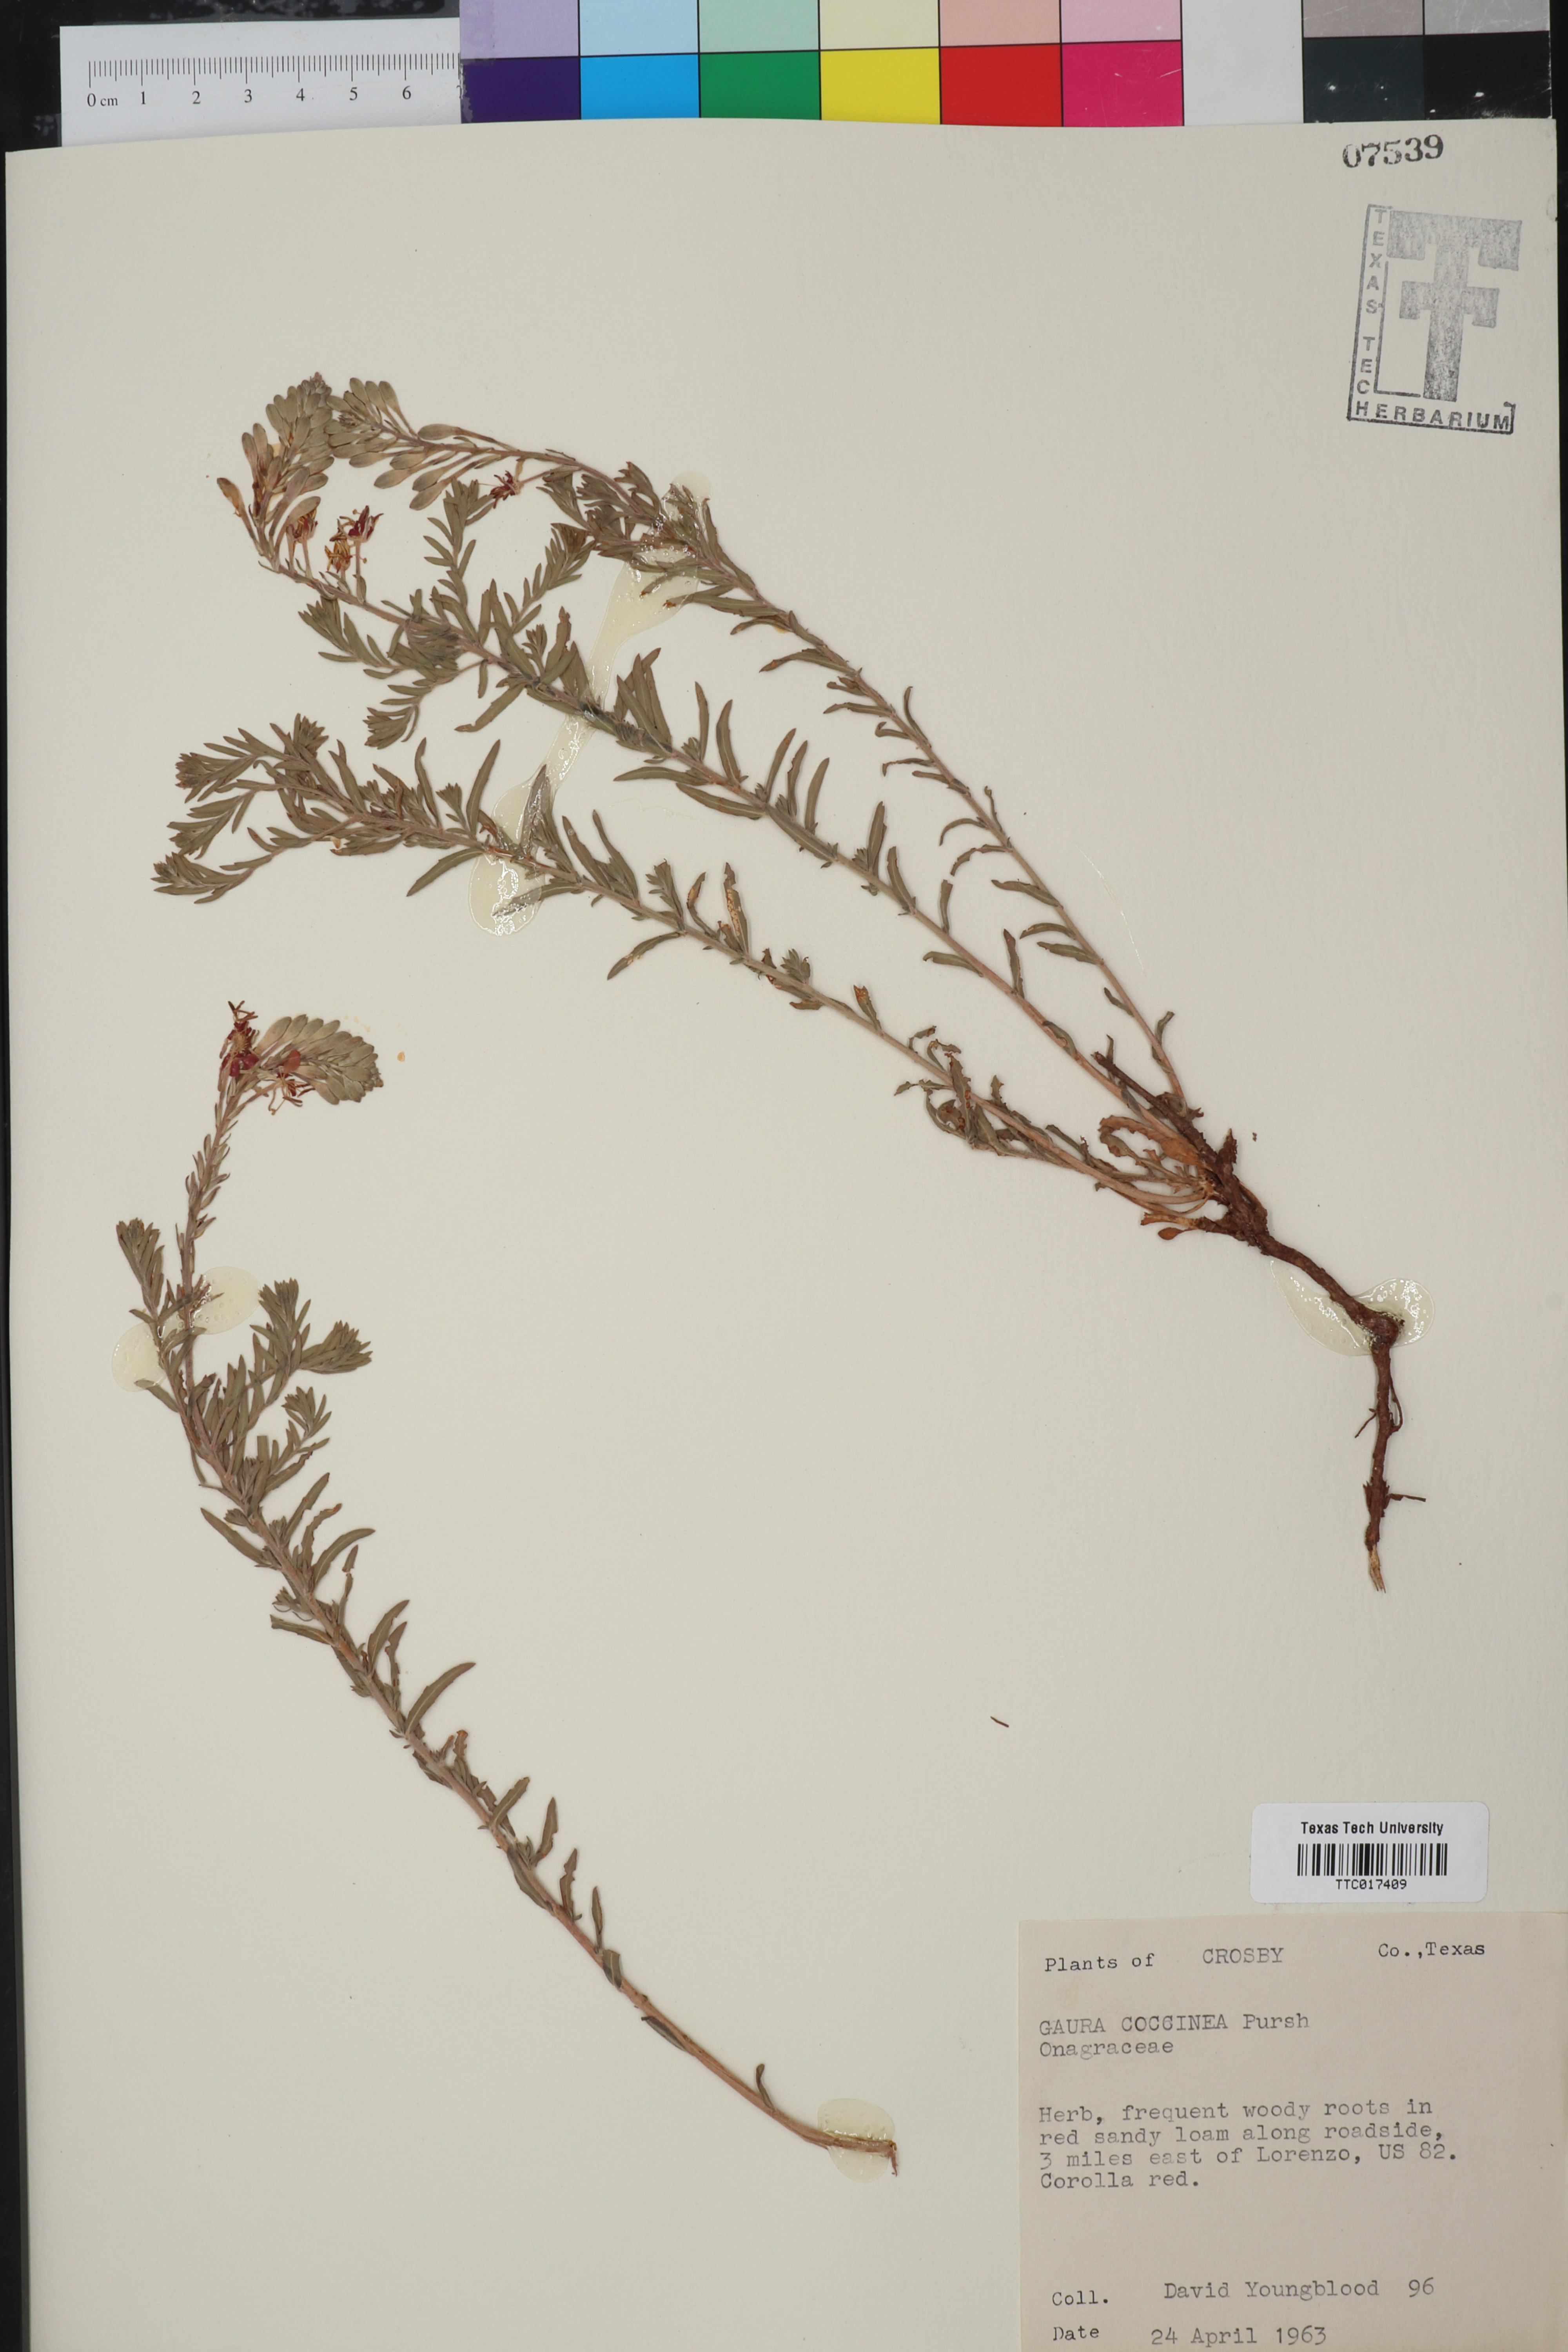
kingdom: Plantae
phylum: Tracheophyta
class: Magnoliopsida
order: Myrtales
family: Onagraceae
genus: Oenothera
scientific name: Oenothera suffrutescens
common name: Scarlet beeblossom
